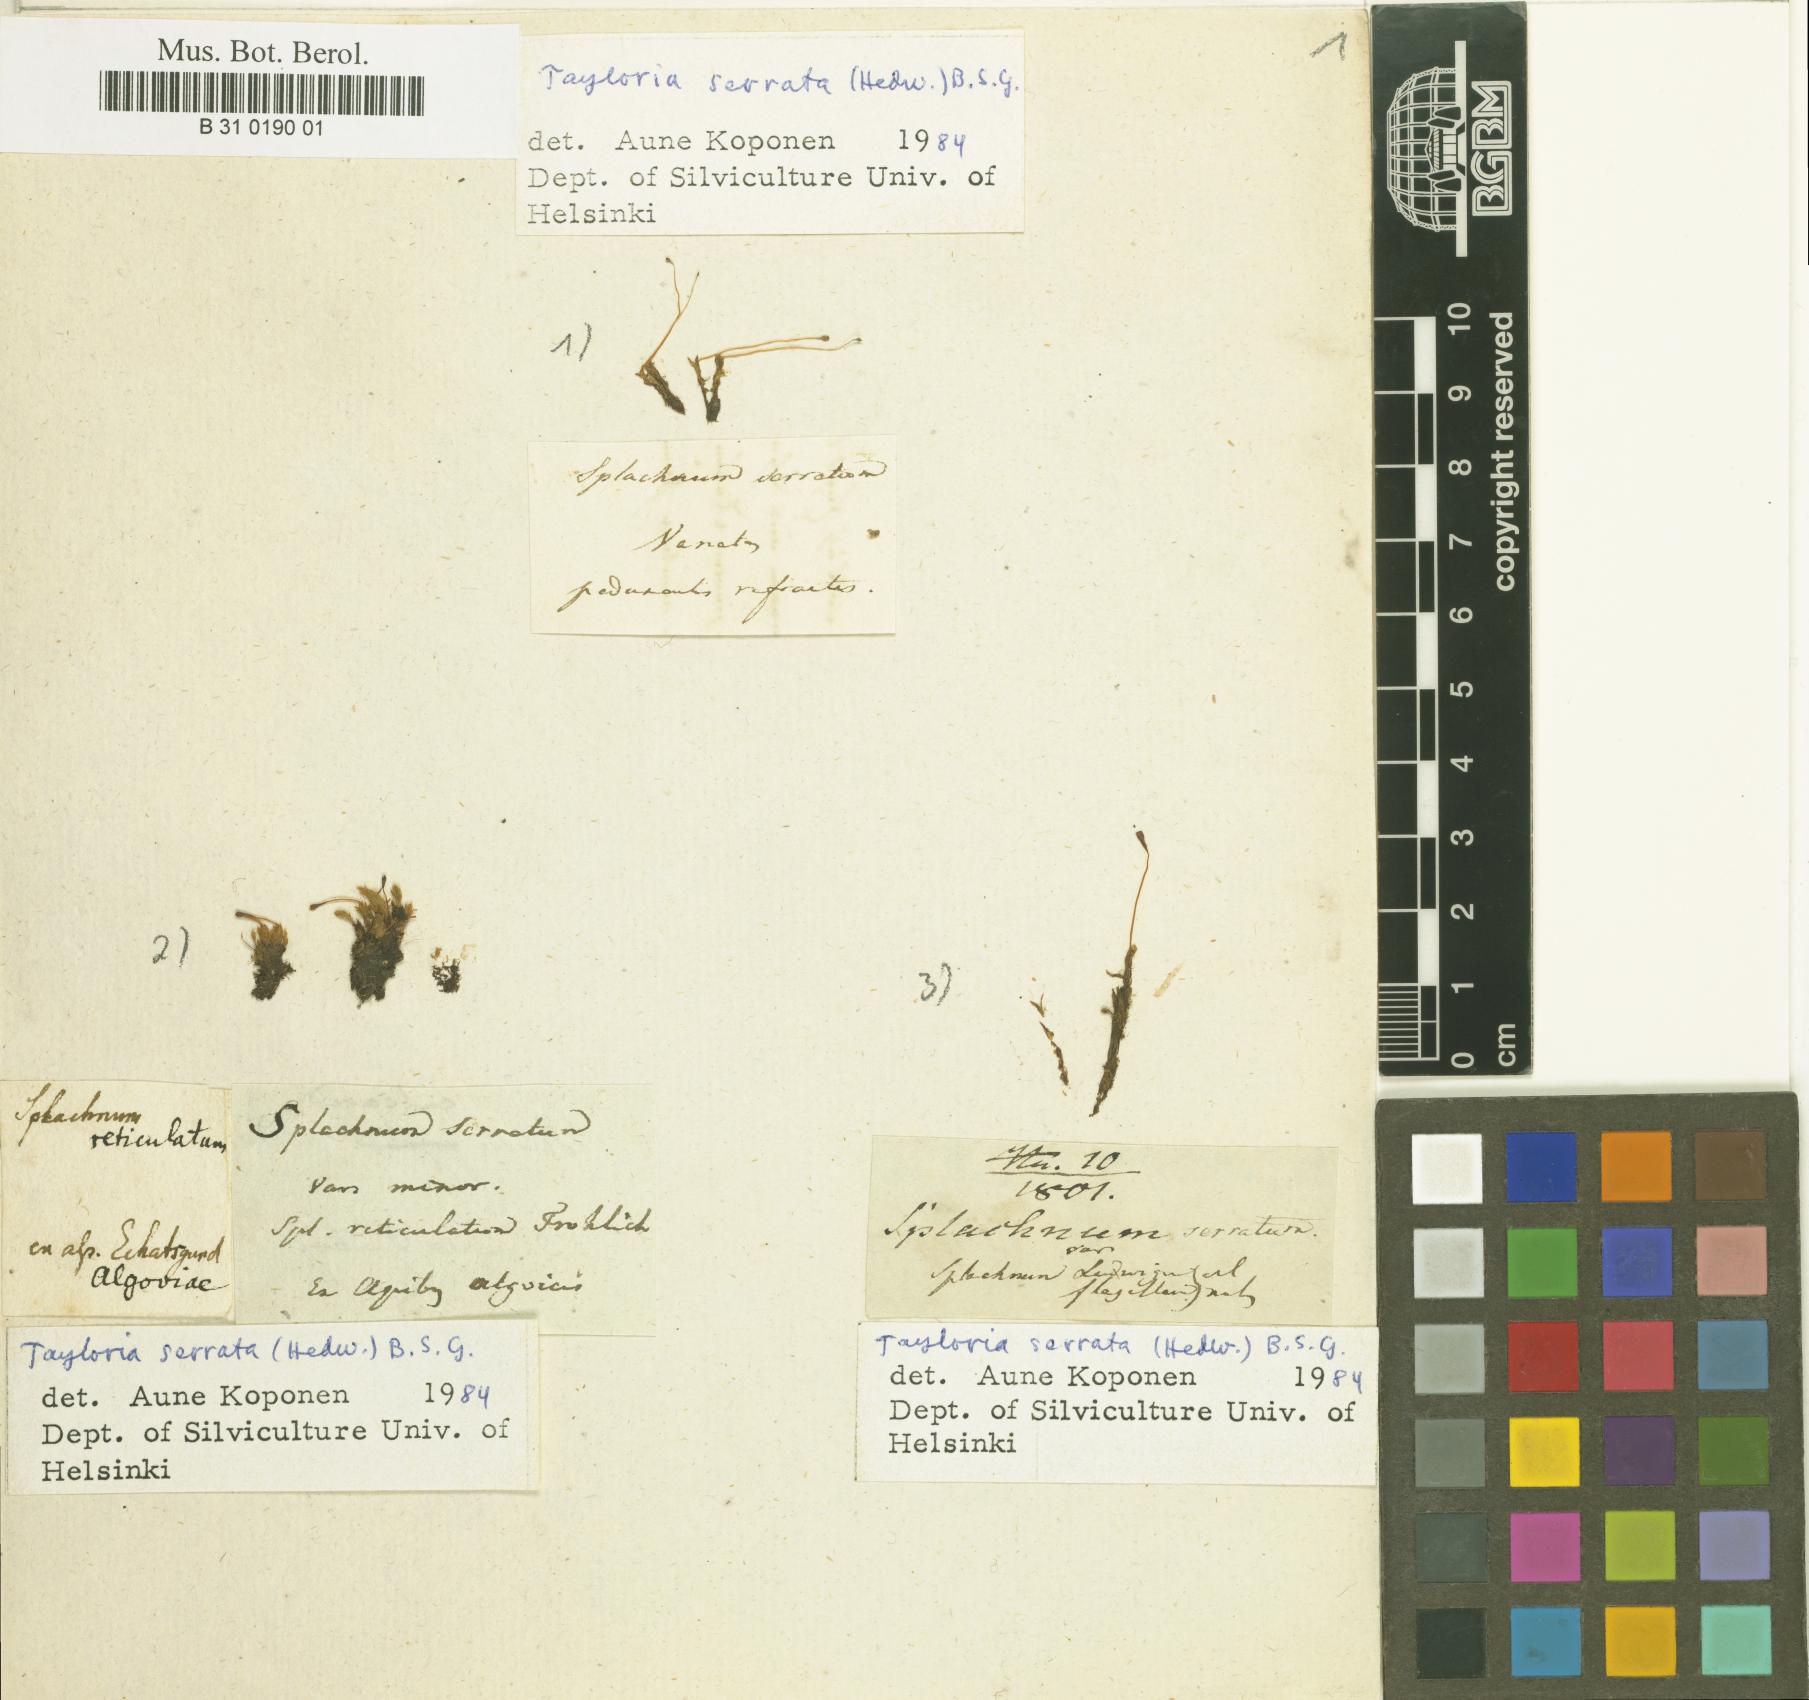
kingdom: Plantae
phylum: Bryophyta
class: Bryopsida
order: Splachnales
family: Splachnaceae
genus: Tayloria
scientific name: Tayloria serrata
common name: Serrate trumpet moss
